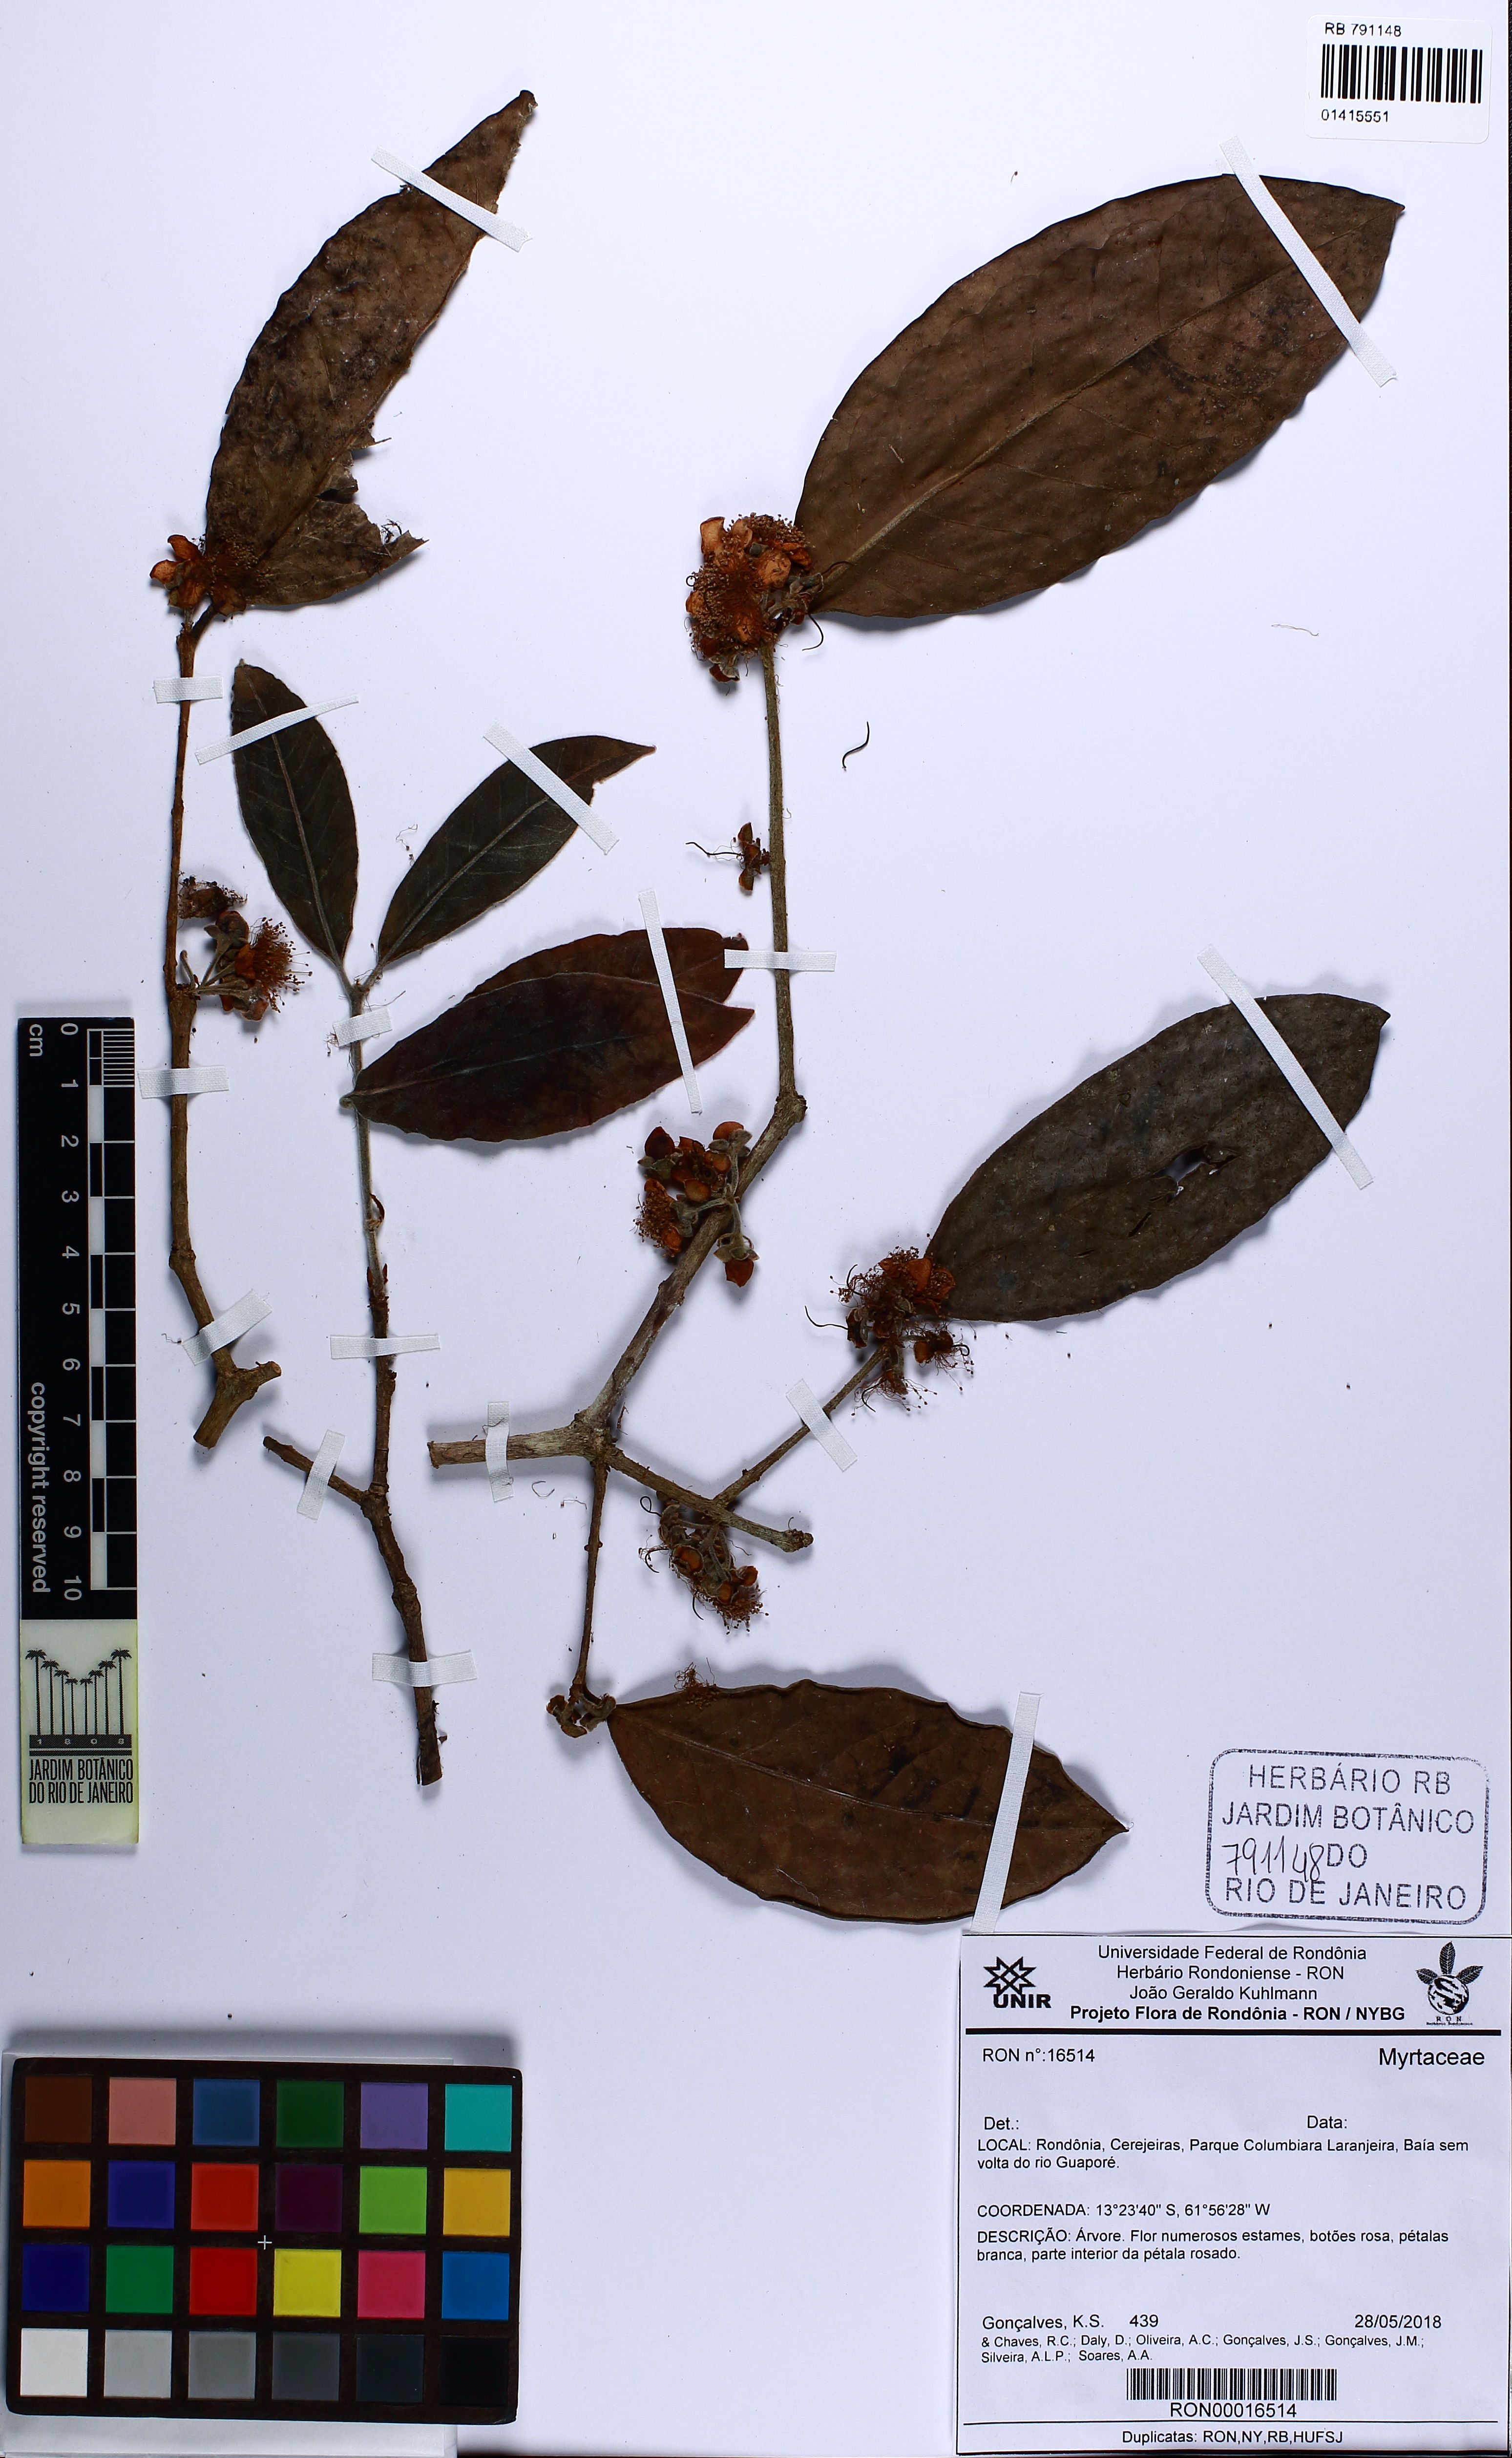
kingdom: Plantae
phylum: Tracheophyta
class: Magnoliopsida
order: Myrtales
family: Myrtaceae
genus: Eugenia
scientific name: Eugenia gomesiana
